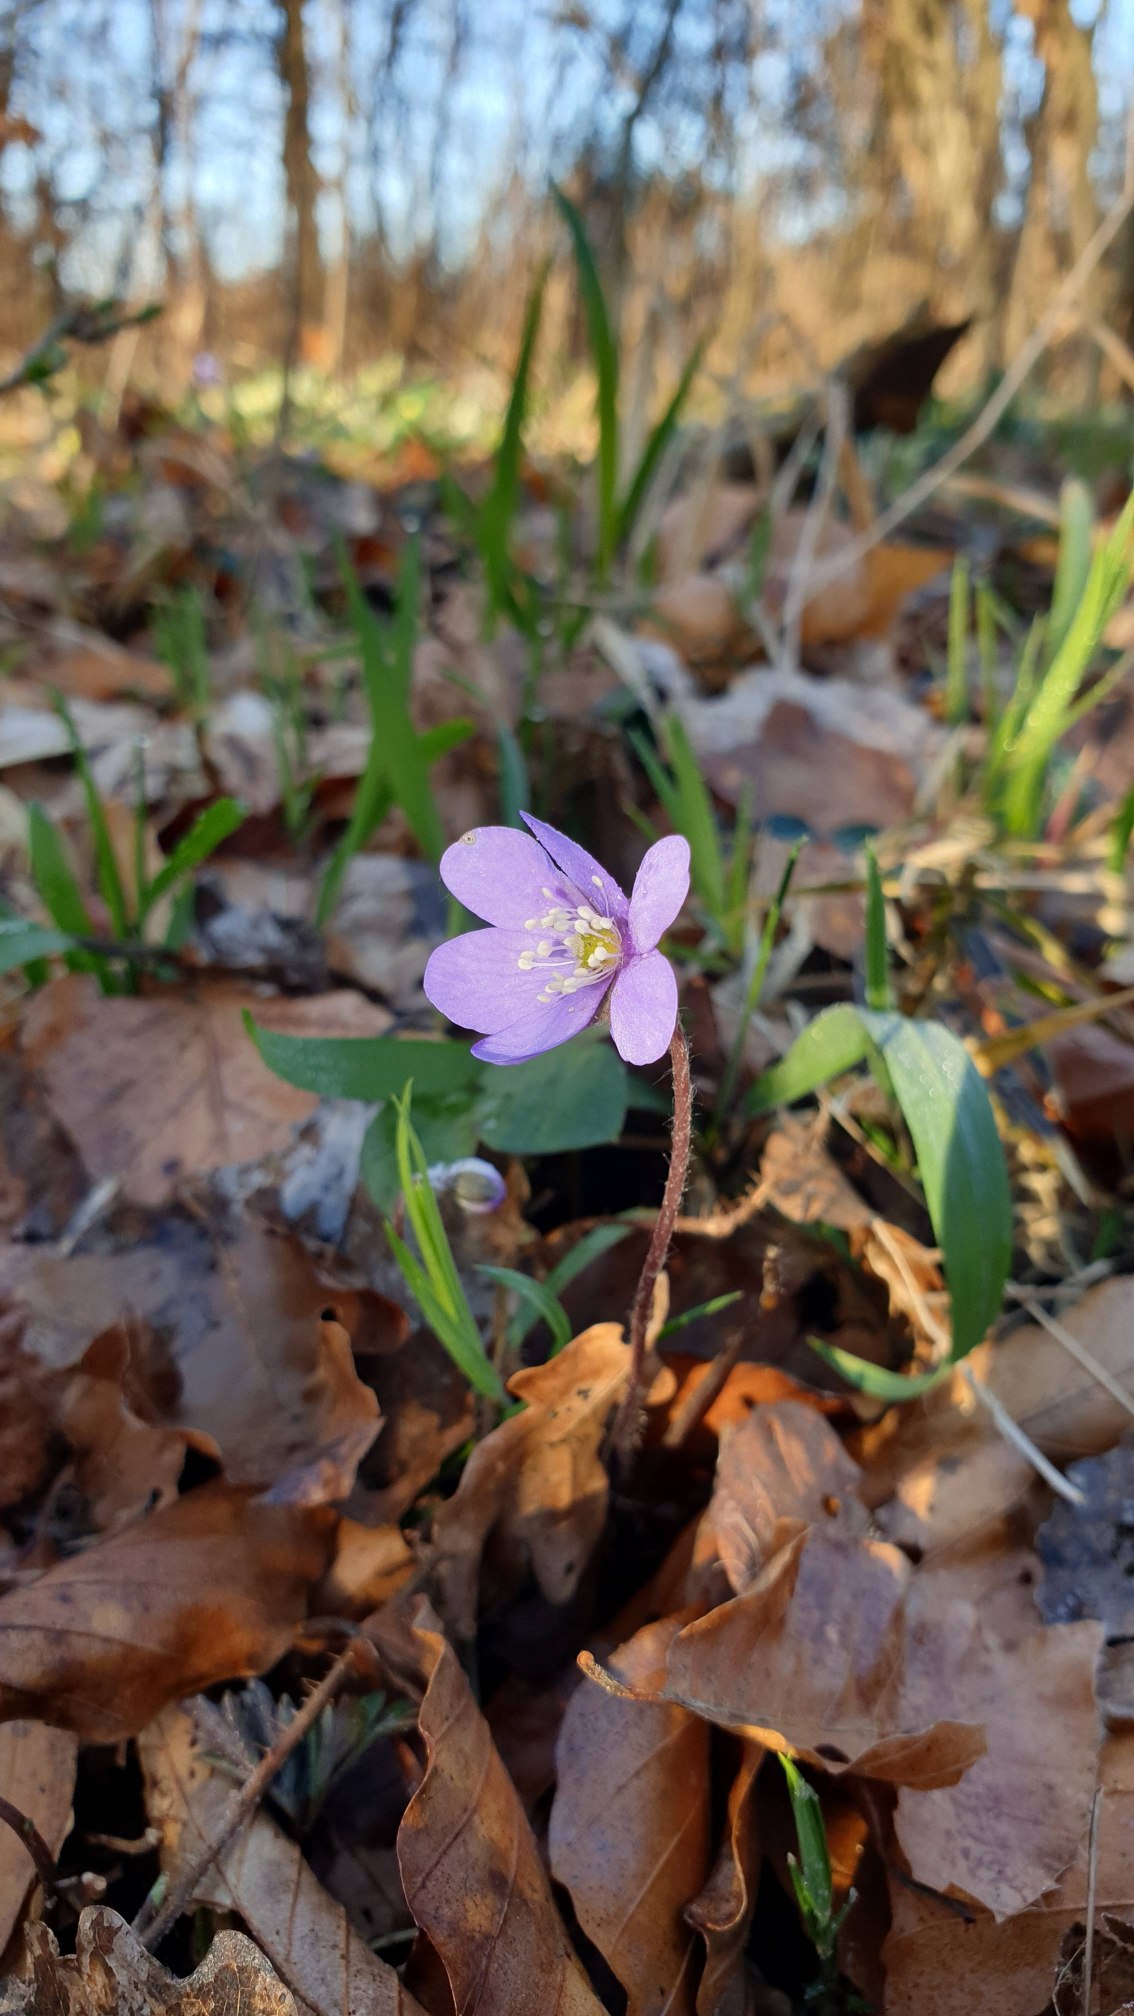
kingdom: Plantae
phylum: Tracheophyta
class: Magnoliopsida
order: Ranunculales
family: Ranunculaceae
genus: Hepatica
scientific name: Hepatica nobilis
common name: Blå anemone
